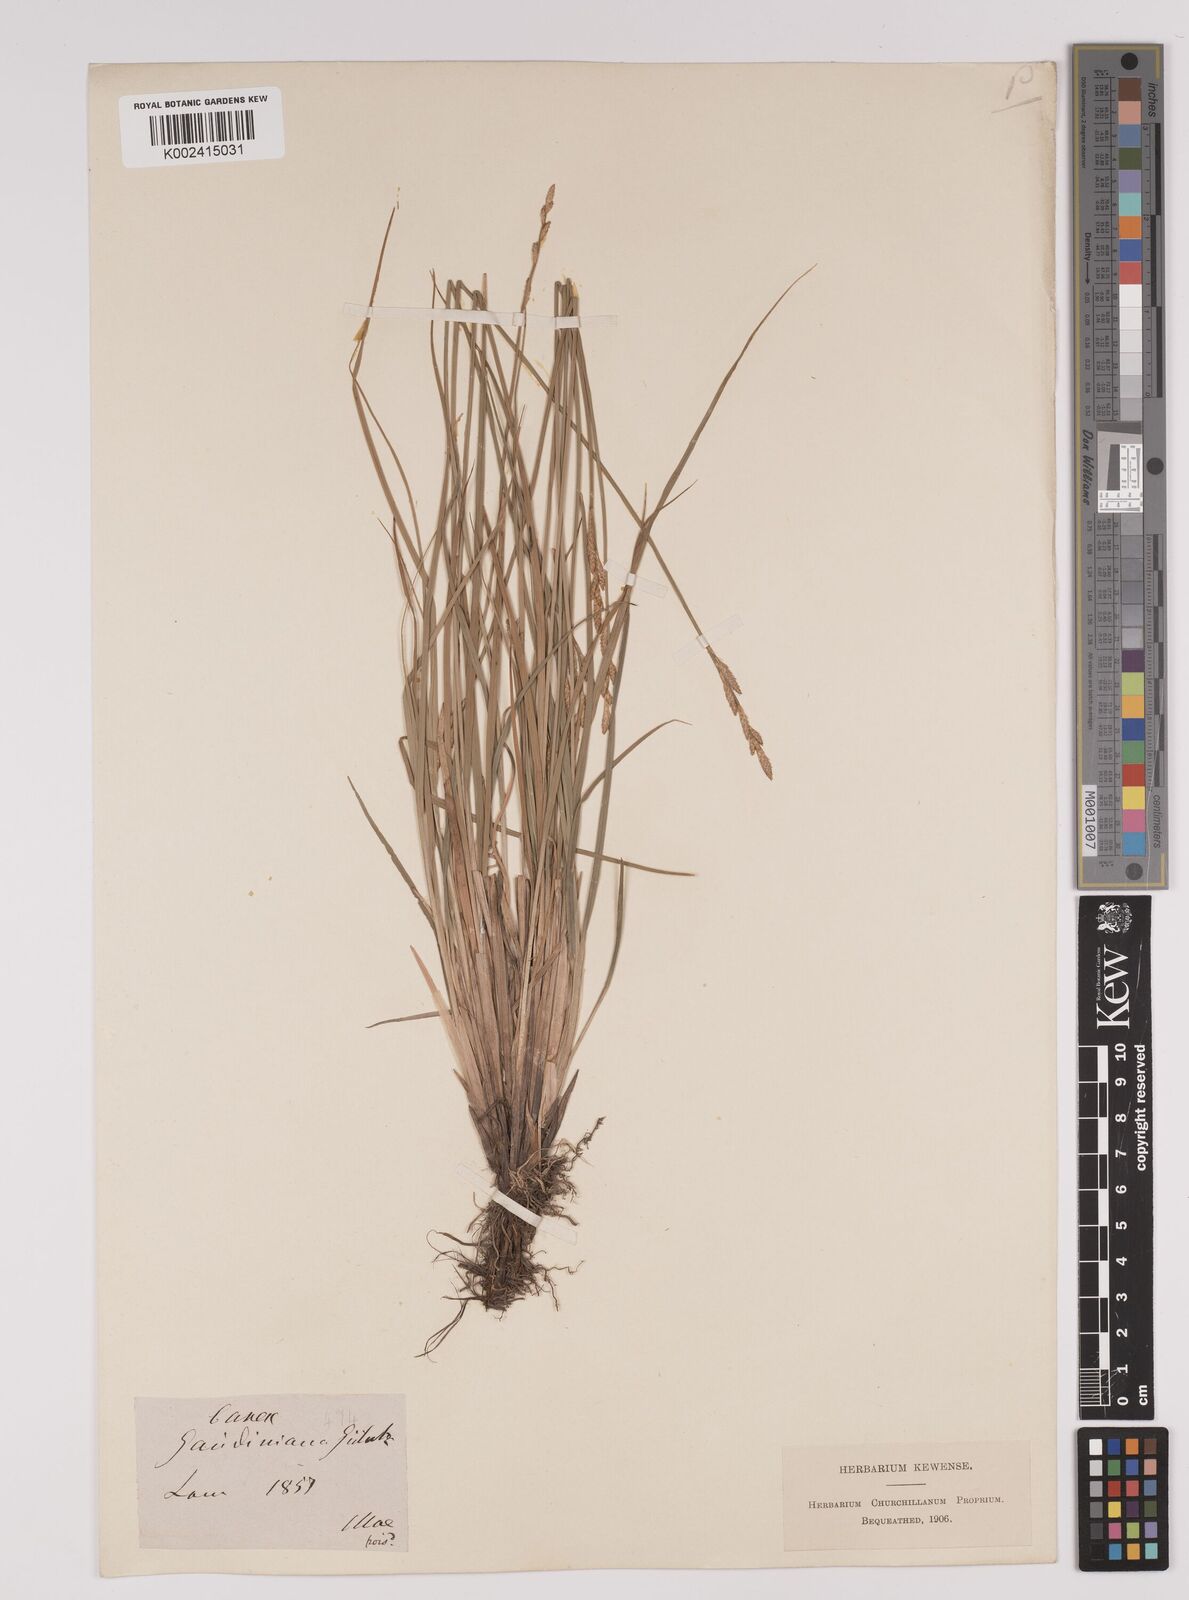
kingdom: Plantae
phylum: Tracheophyta
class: Liliopsida
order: Poales
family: Cyperaceae
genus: Carex
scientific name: Carex dioica
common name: Dioecious sedge
